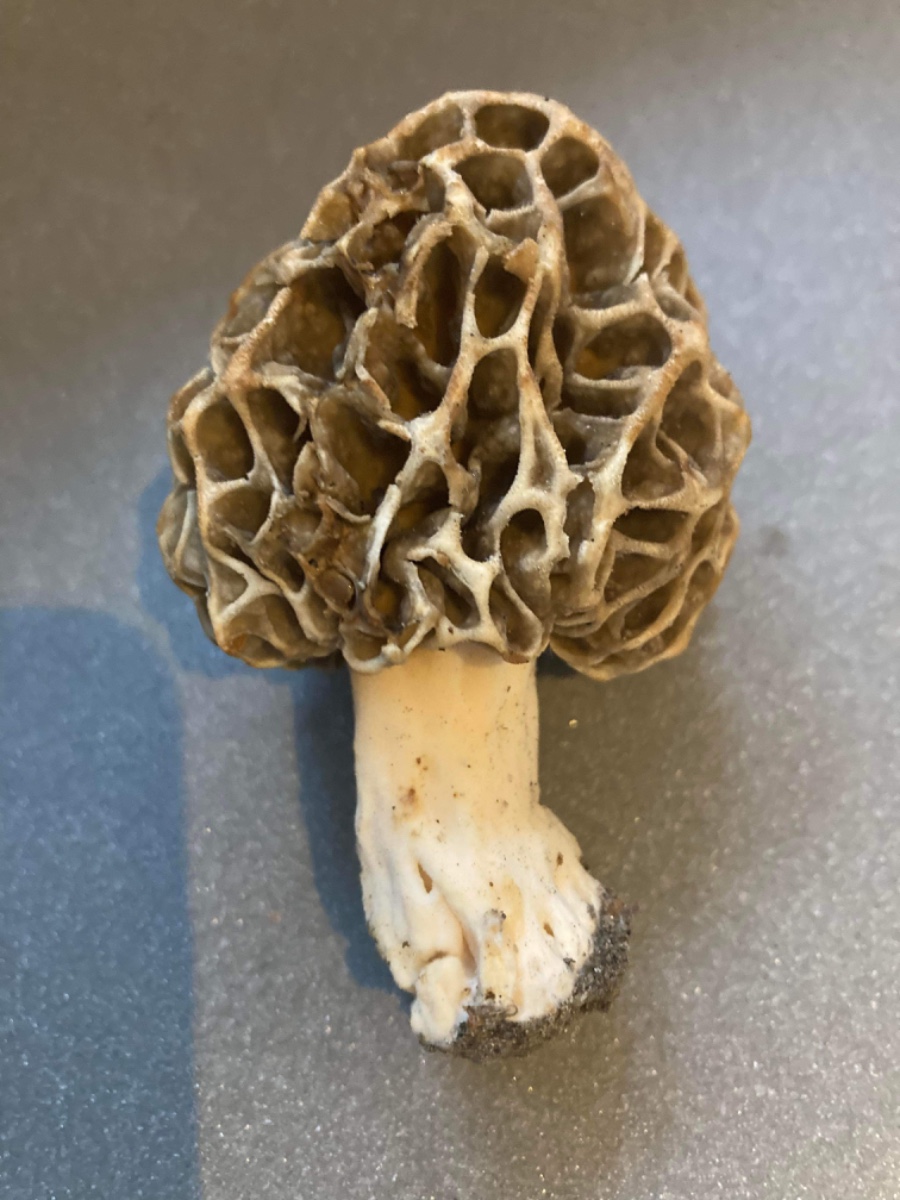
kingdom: Fungi
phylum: Ascomycota
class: Pezizomycetes
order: Pezizales
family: Morchellaceae
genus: Morchella
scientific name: Morchella esculenta
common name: almindelig morkel
